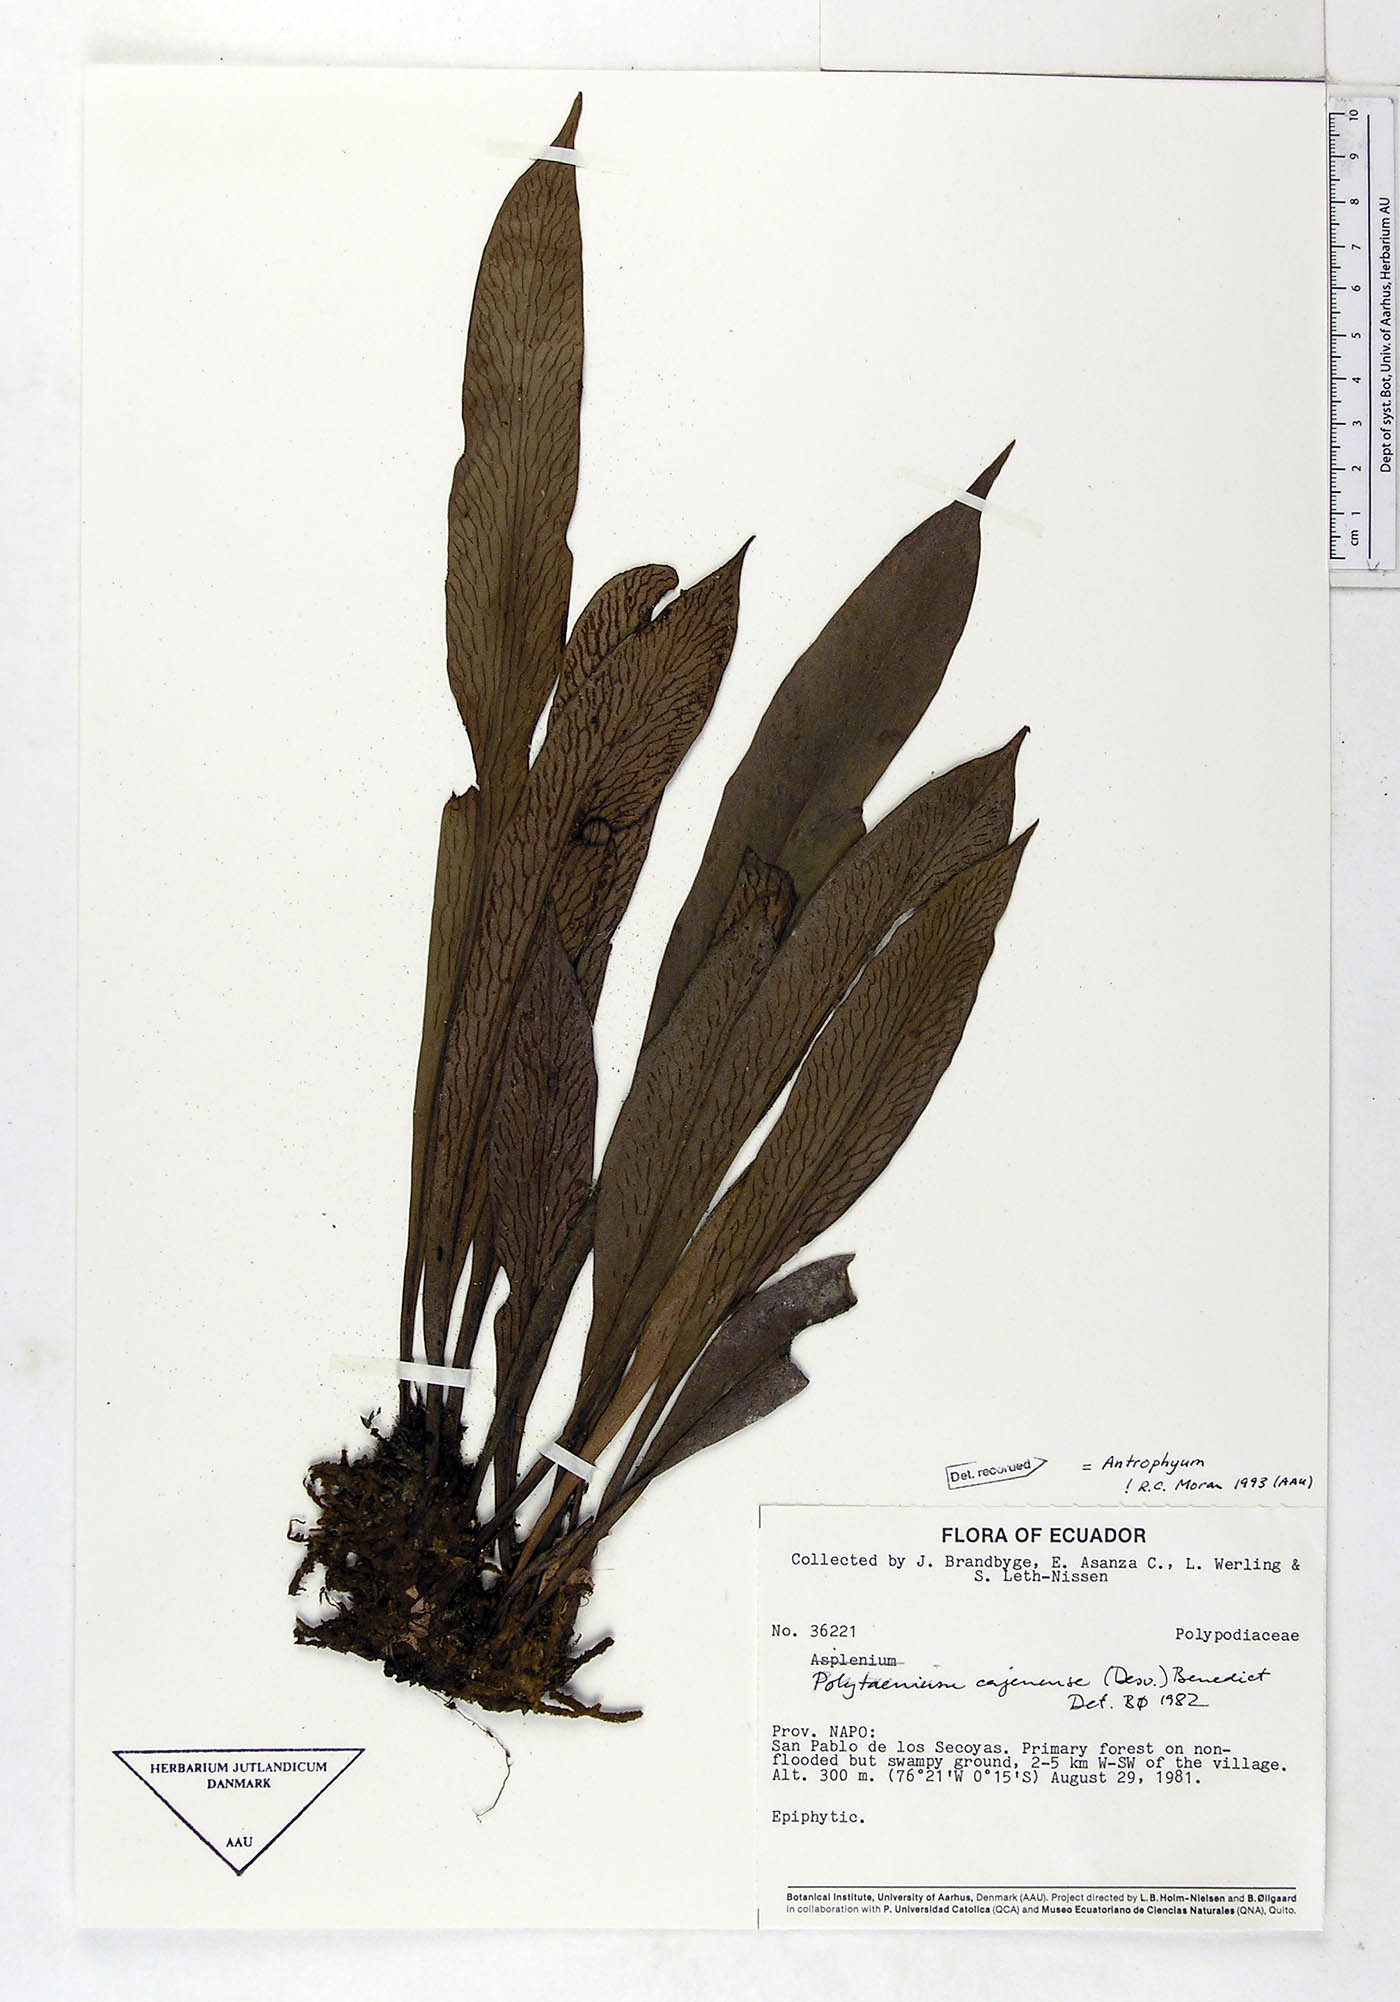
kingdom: Plantae
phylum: Tracheophyta
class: Polypodiopsida
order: Polypodiales
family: Pteridaceae
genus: Polytaenium
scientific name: Polytaenium cajenense
